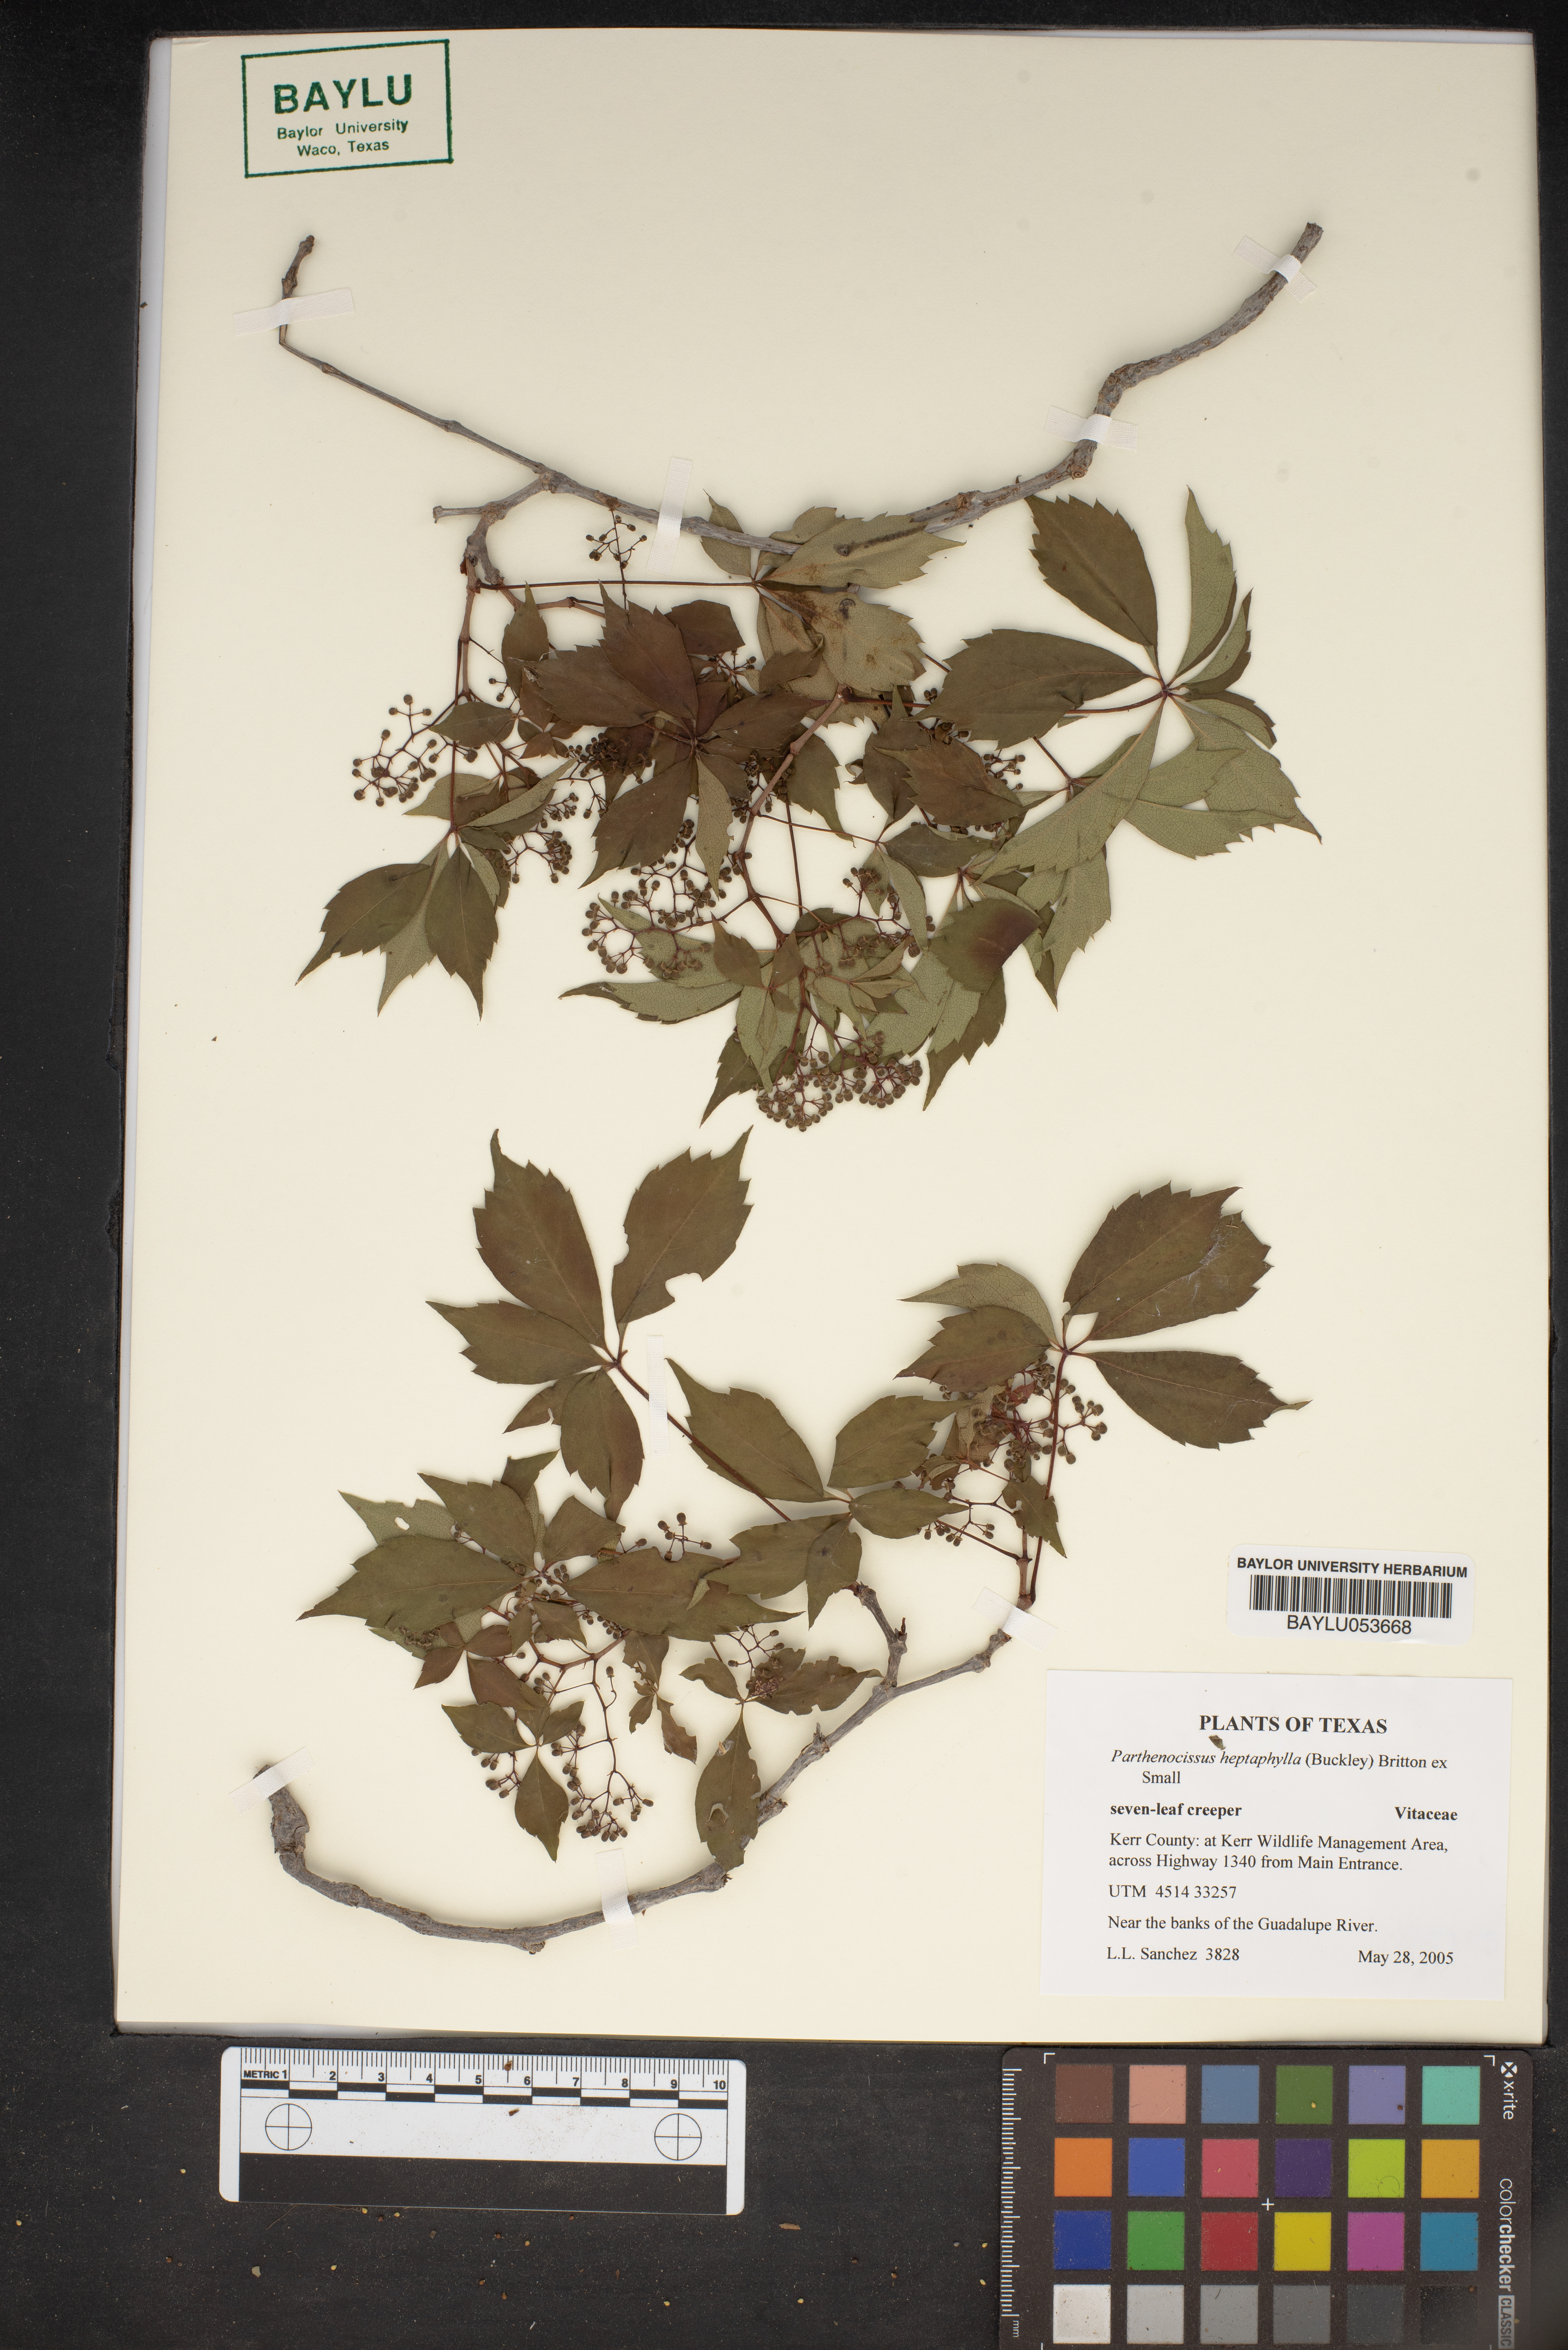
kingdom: Plantae
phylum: Tracheophyta
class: Magnoliopsida
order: Vitales
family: Vitaceae
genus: Parthenocissus
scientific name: Parthenocissus heptaphylla
